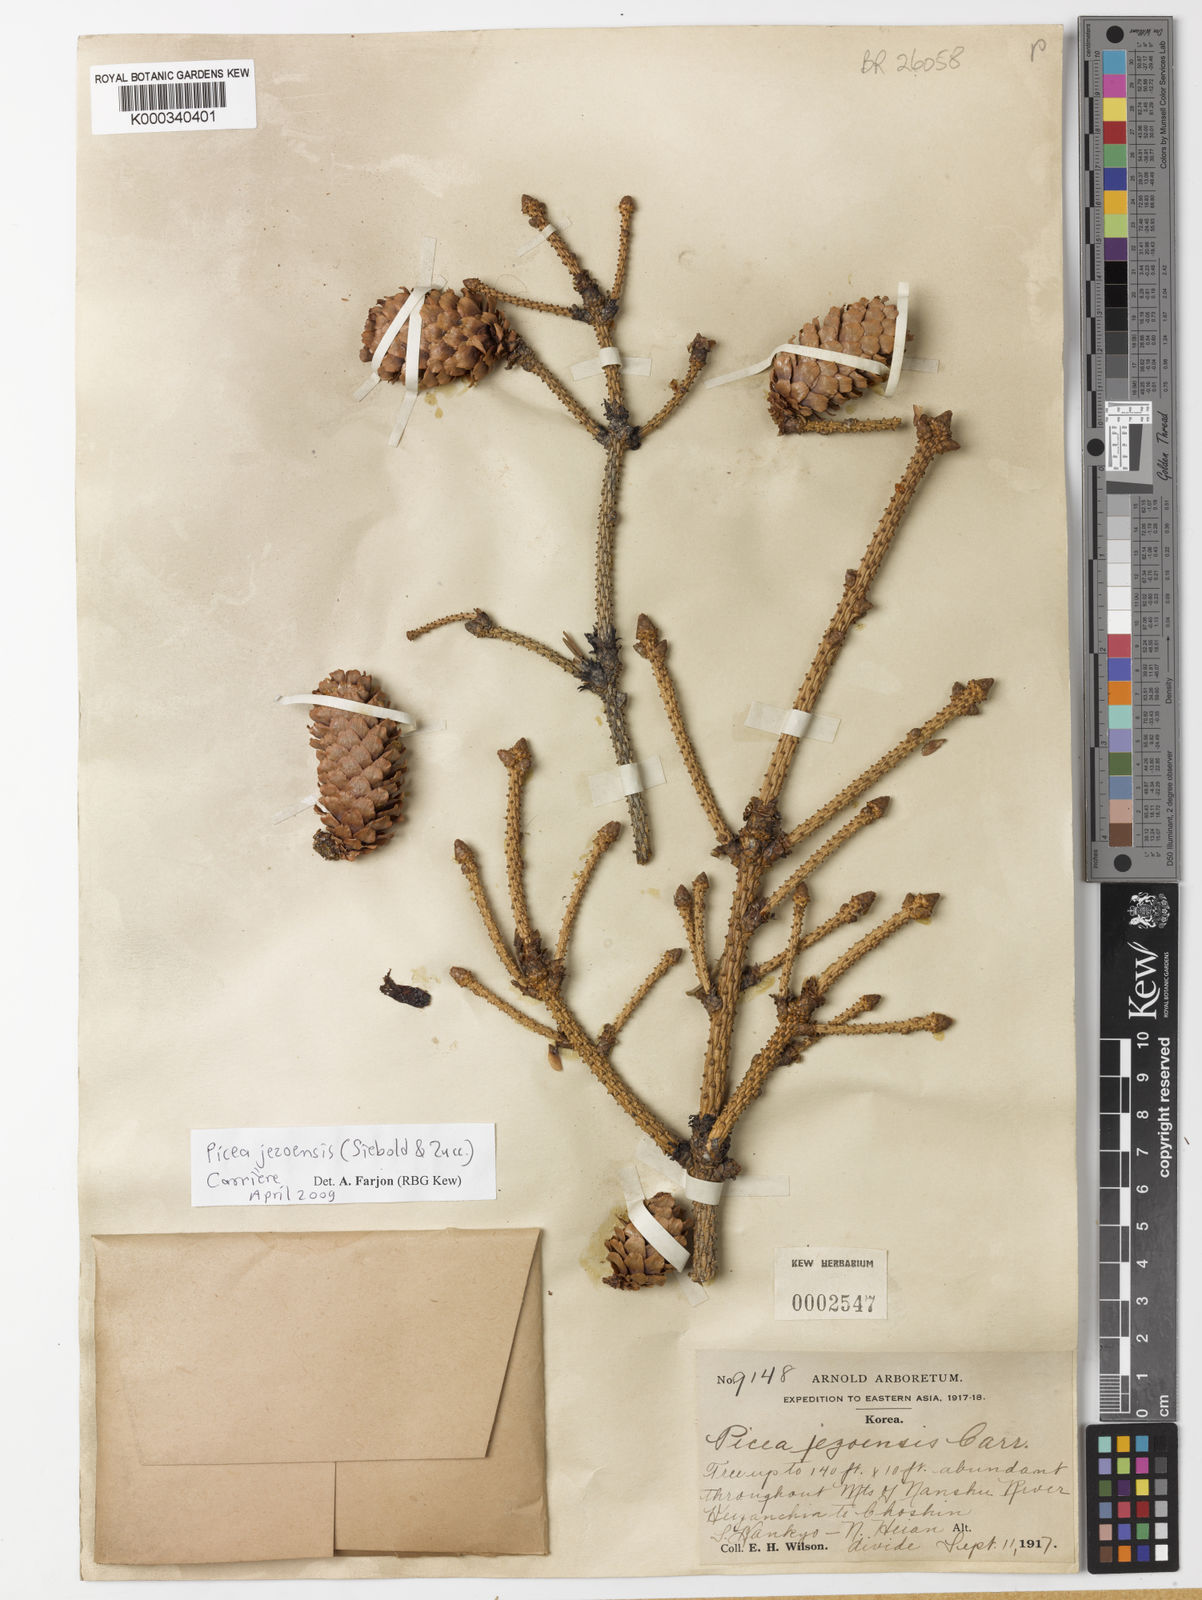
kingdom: Plantae
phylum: Tracheophyta
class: Pinopsida
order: Pinales
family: Pinaceae
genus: Picea
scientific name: Picea
